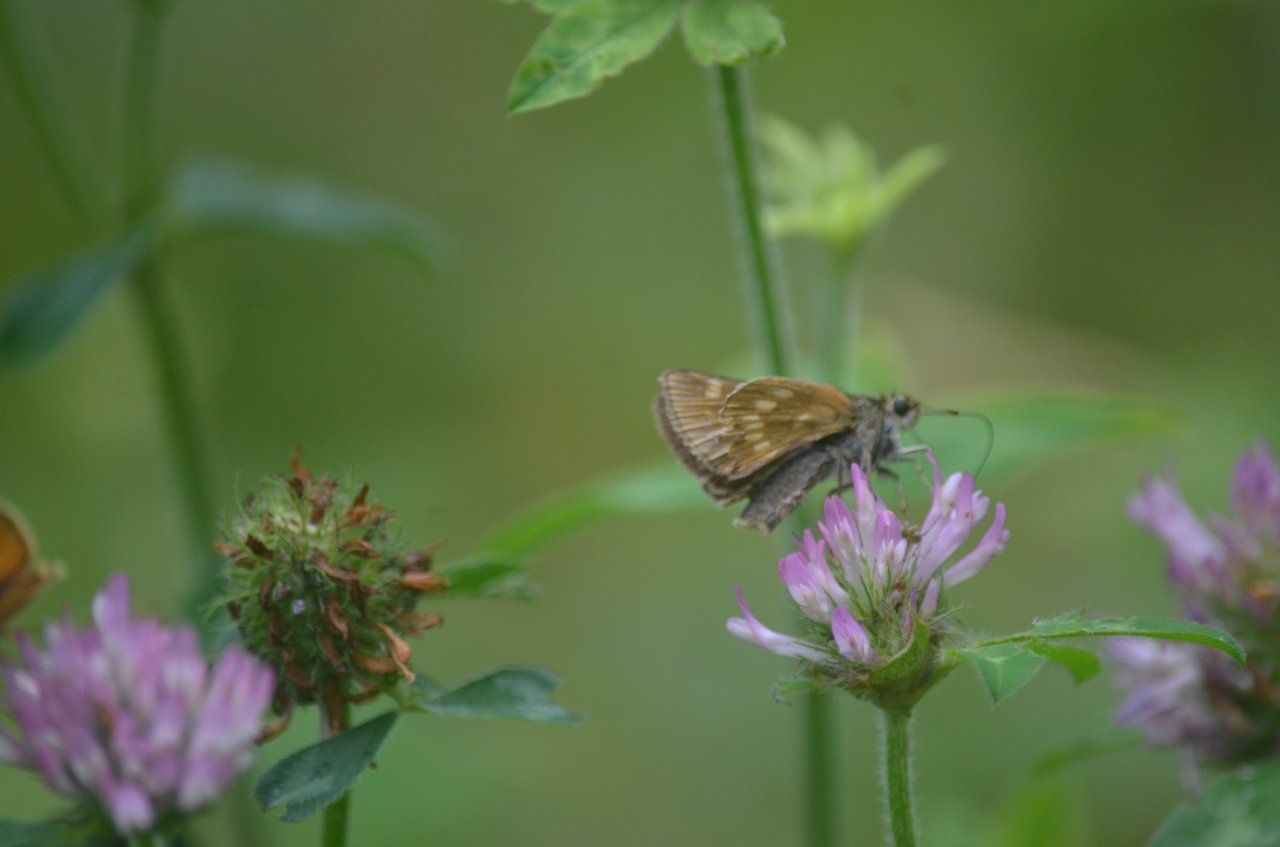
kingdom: Animalia
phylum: Arthropoda
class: Insecta
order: Lepidoptera
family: Hesperiidae
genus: Polites
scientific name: Polites
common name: Long Dash Skipper
